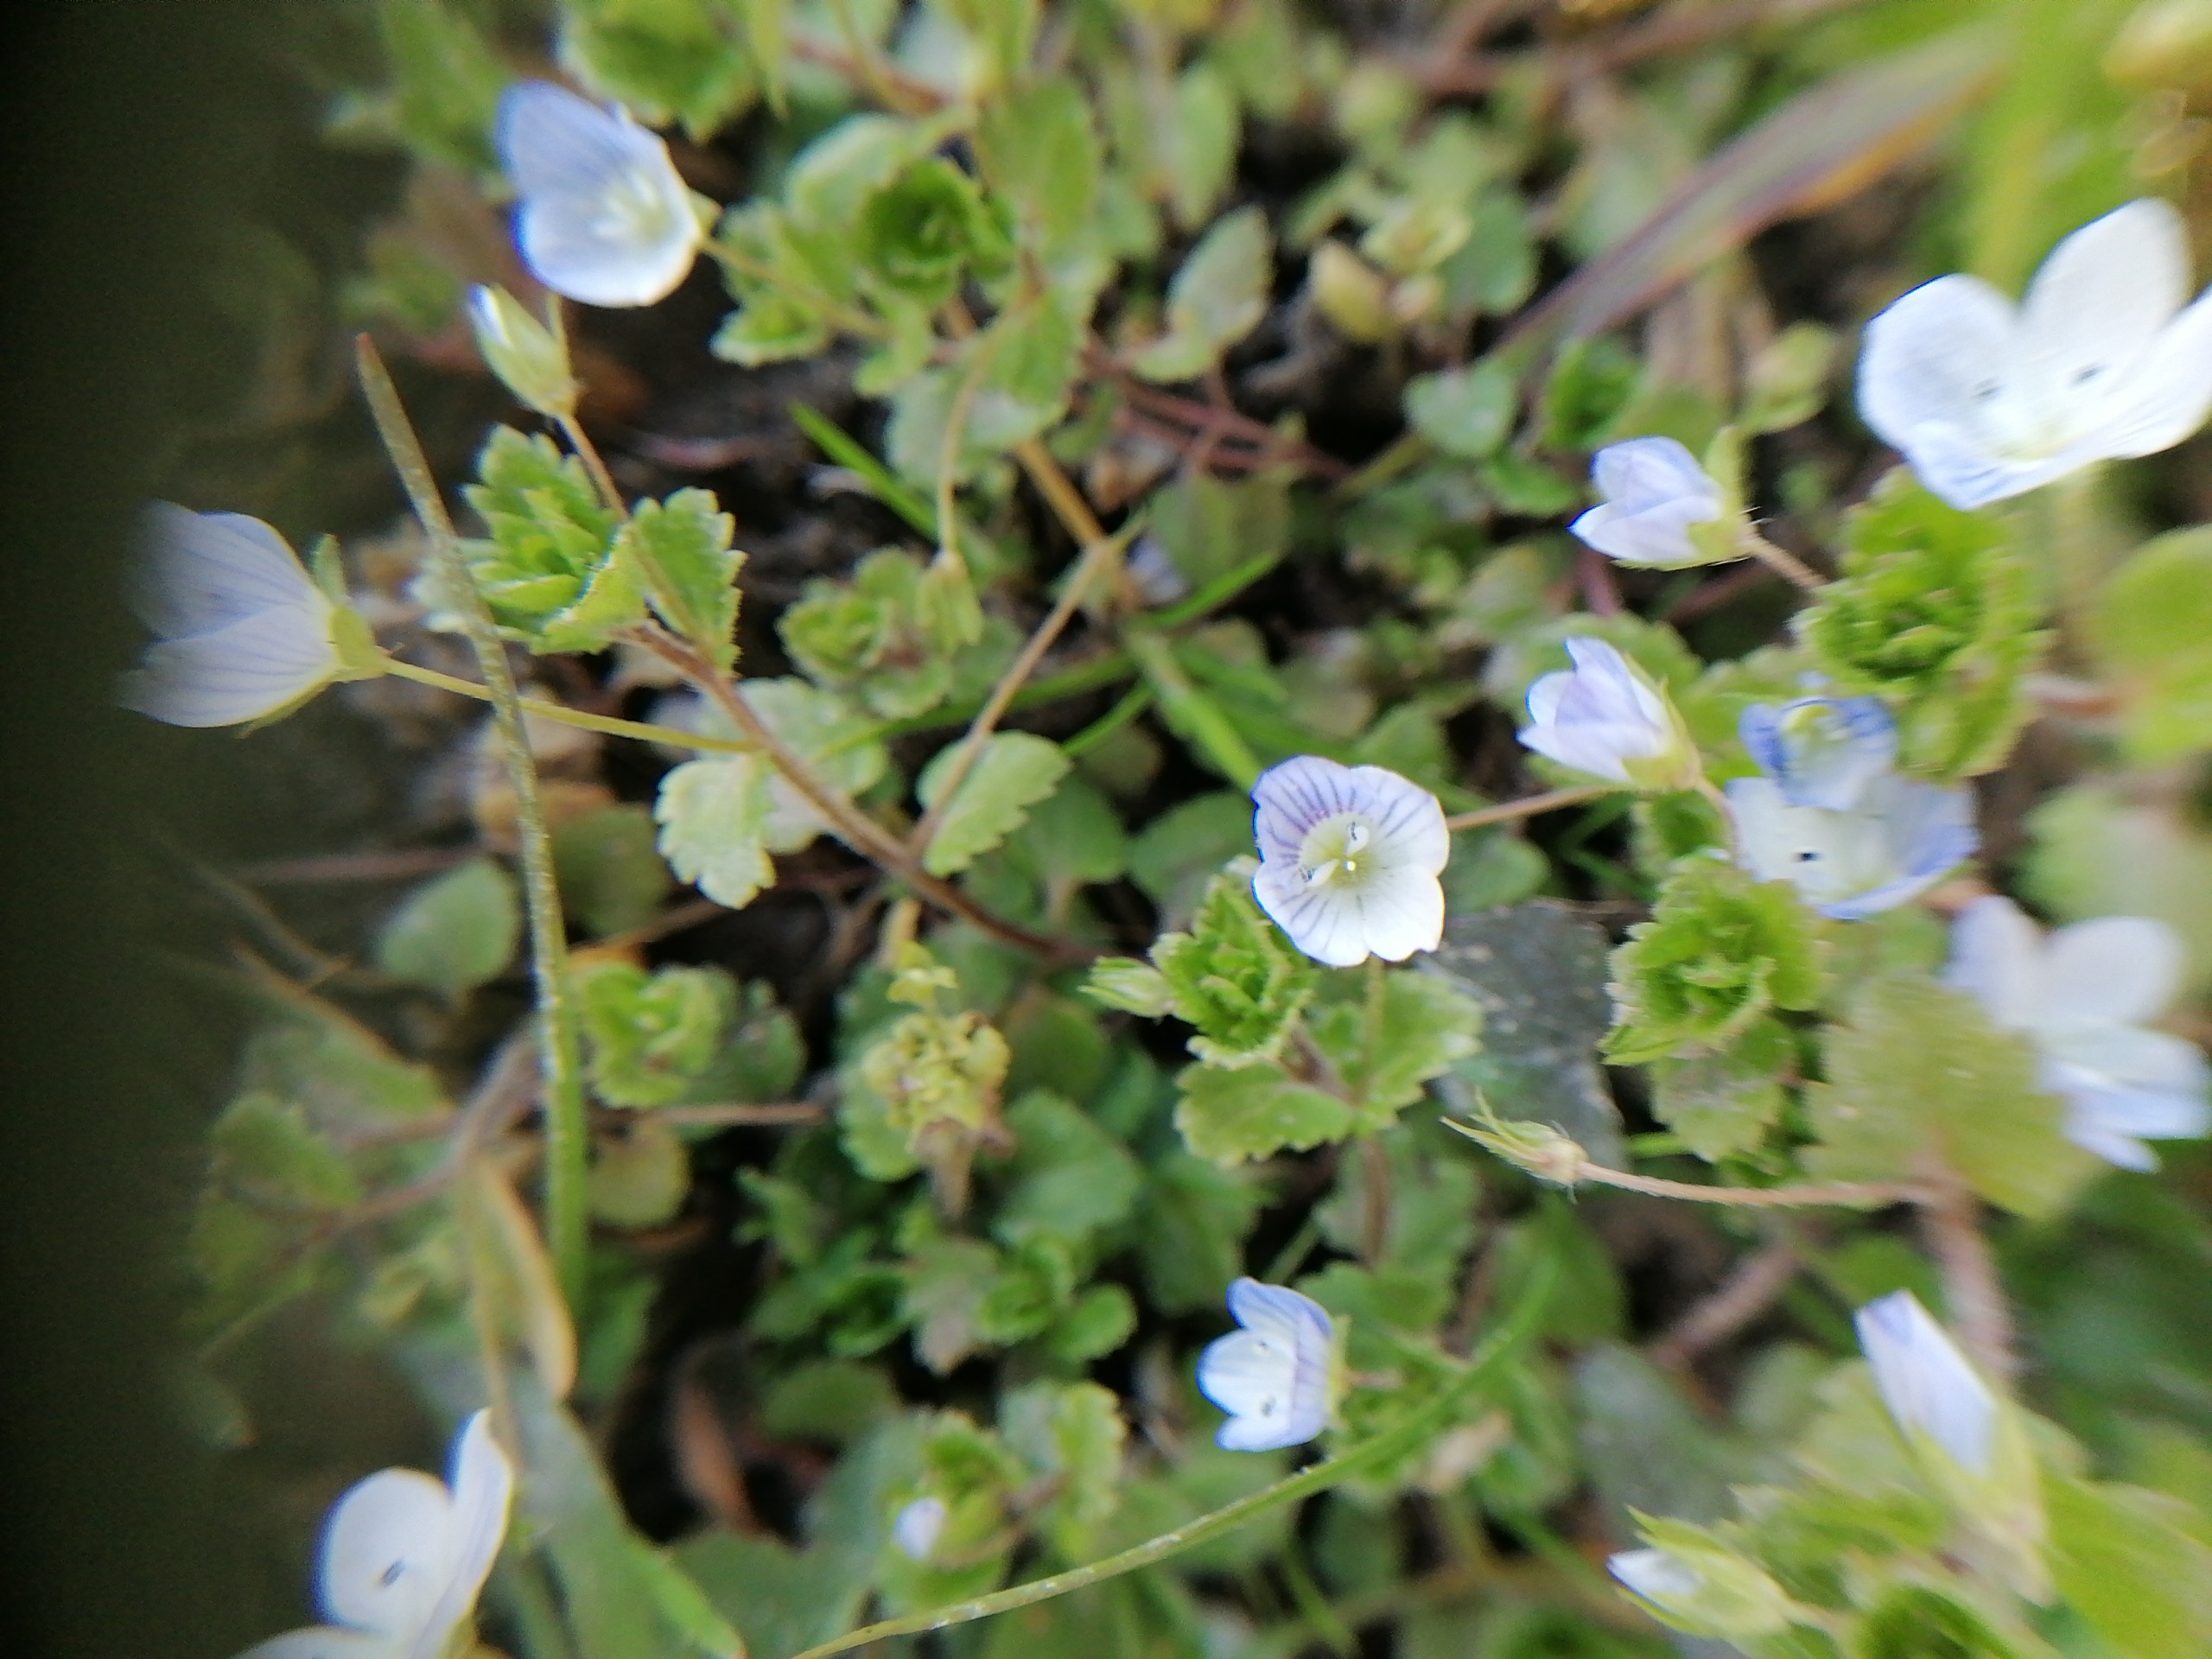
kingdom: Plantae
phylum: Tracheophyta
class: Magnoliopsida
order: Lamiales
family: Plantaginaceae
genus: Veronica
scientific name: Veronica persica
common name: Storkronet ærenpris
